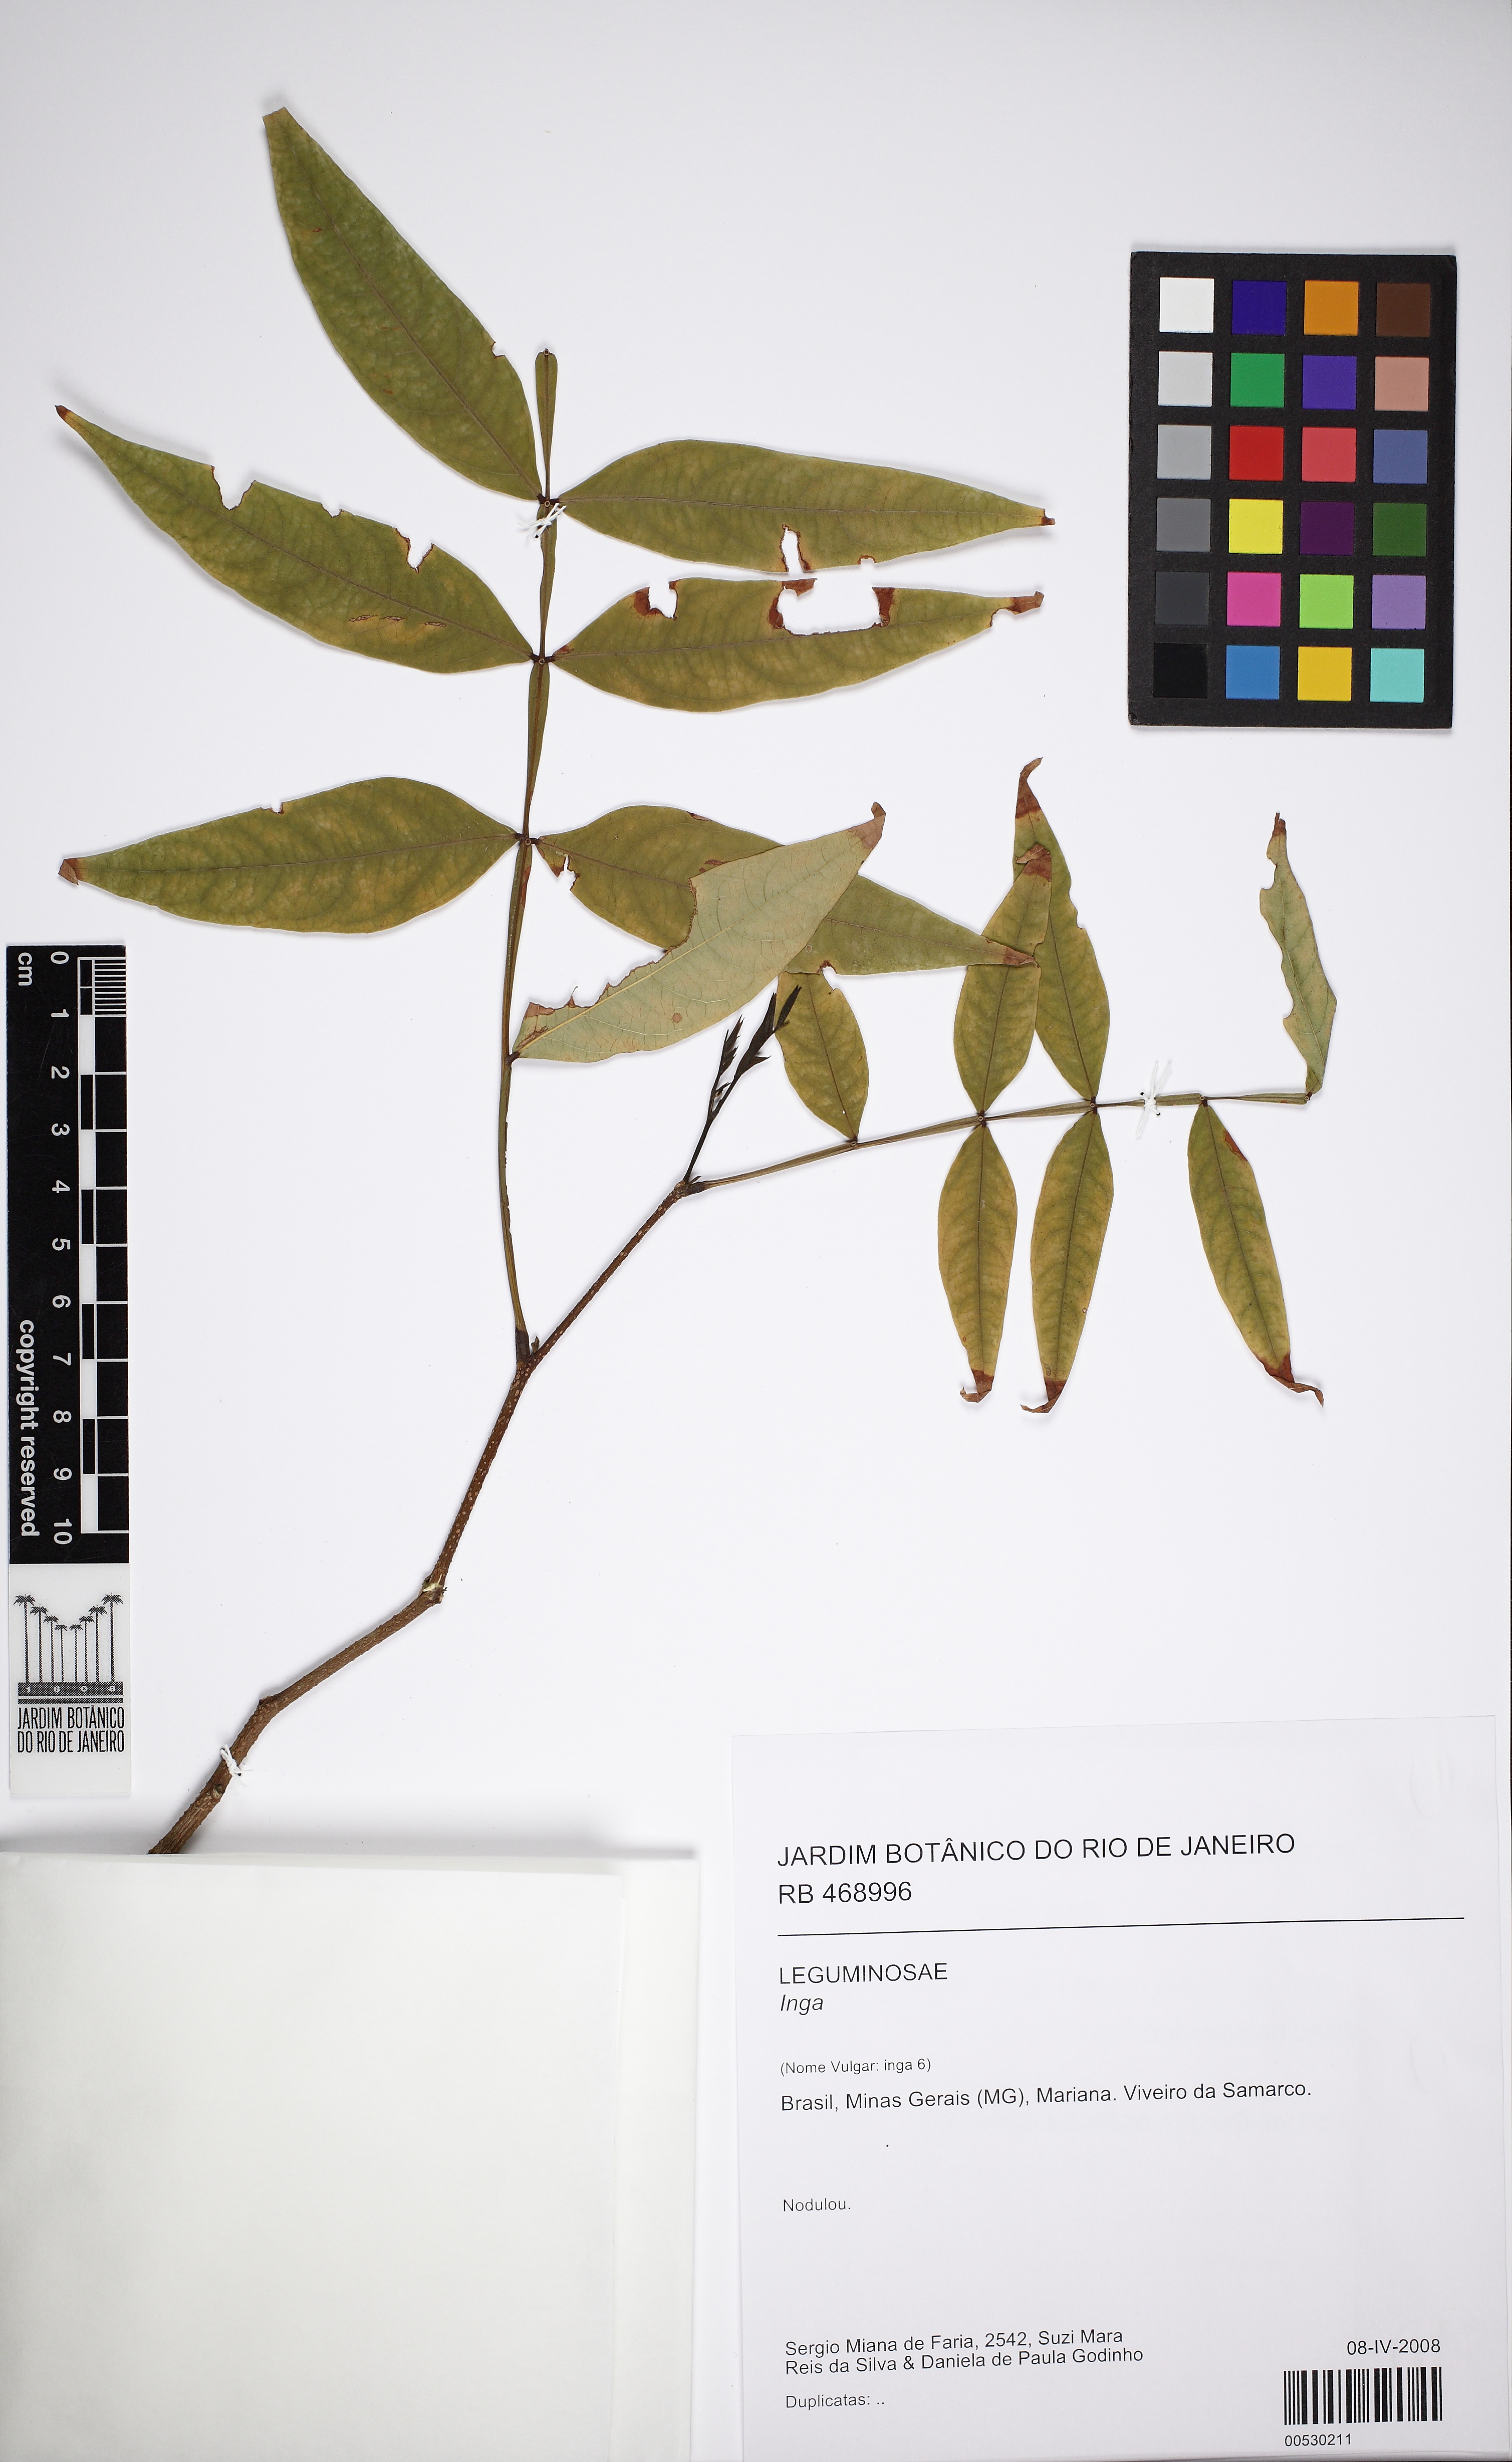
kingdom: Plantae
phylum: Tracheophyta
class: Magnoliopsida
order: Fabales
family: Fabaceae
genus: Inga
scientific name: Inga striata
